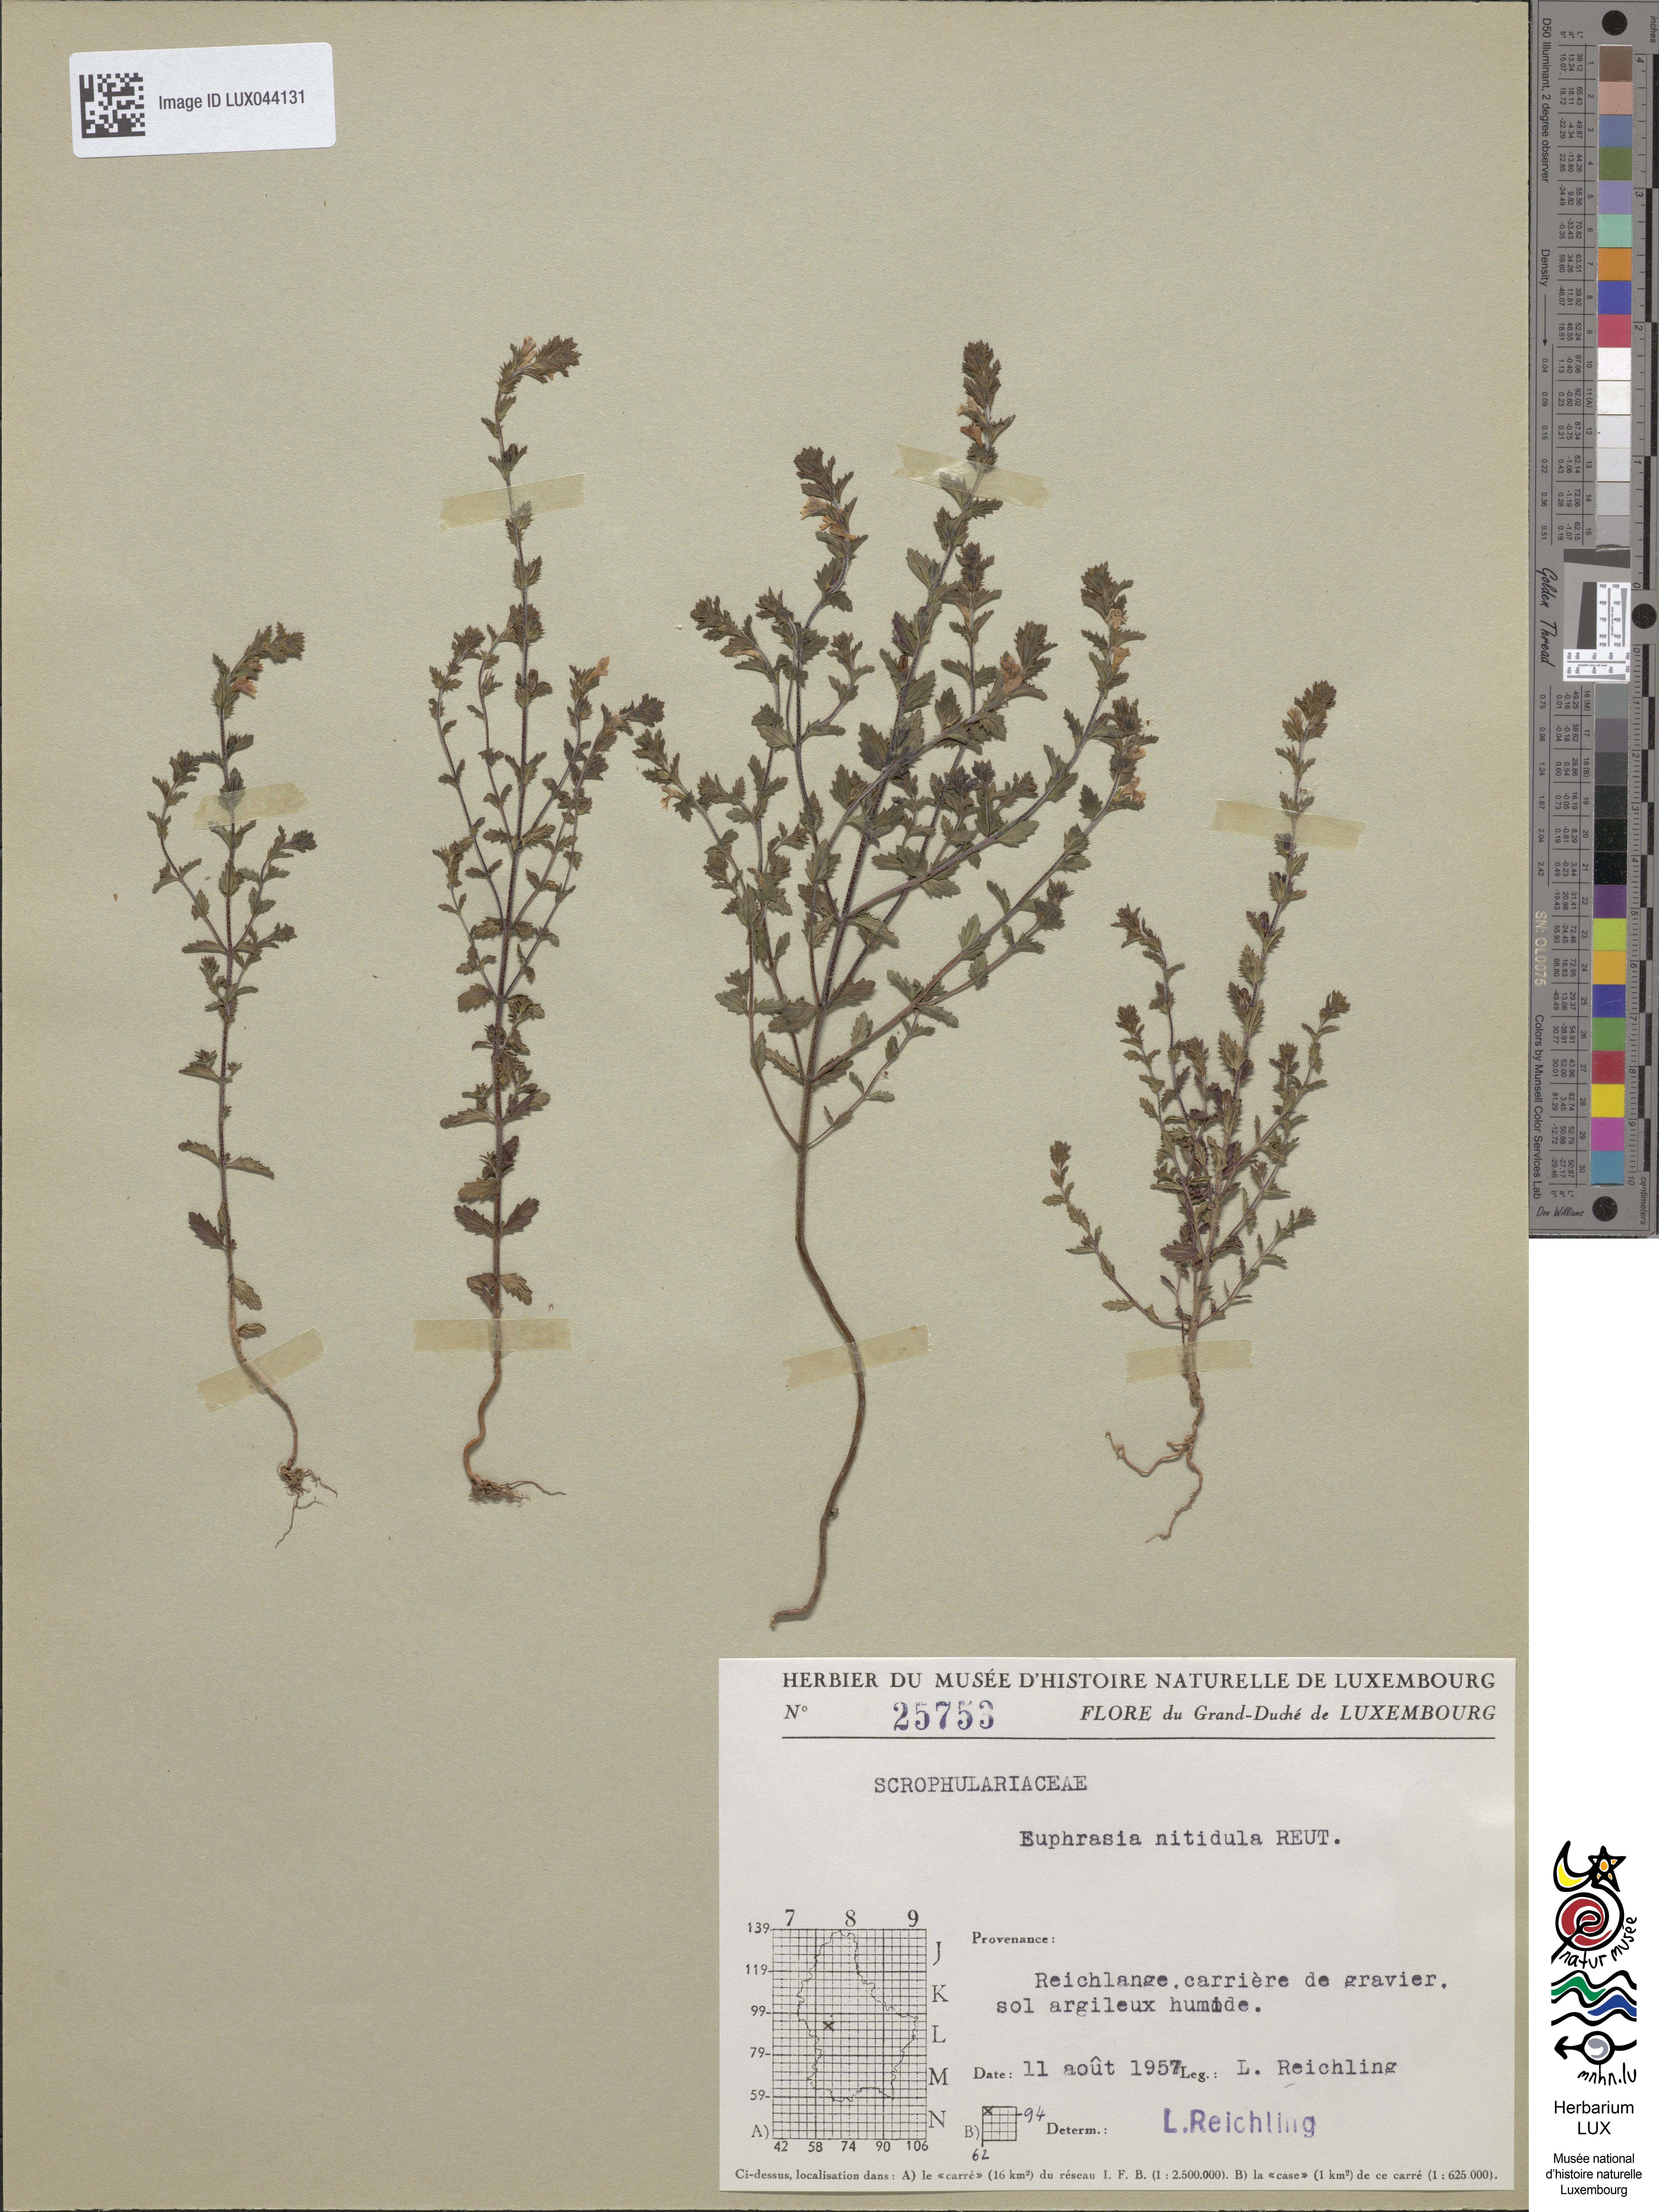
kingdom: Plantae
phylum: Tracheophyta
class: Magnoliopsida
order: Lamiales
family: Orobanchaceae
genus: Euphrasia
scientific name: Euphrasia nemorosa
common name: Common eyebright
